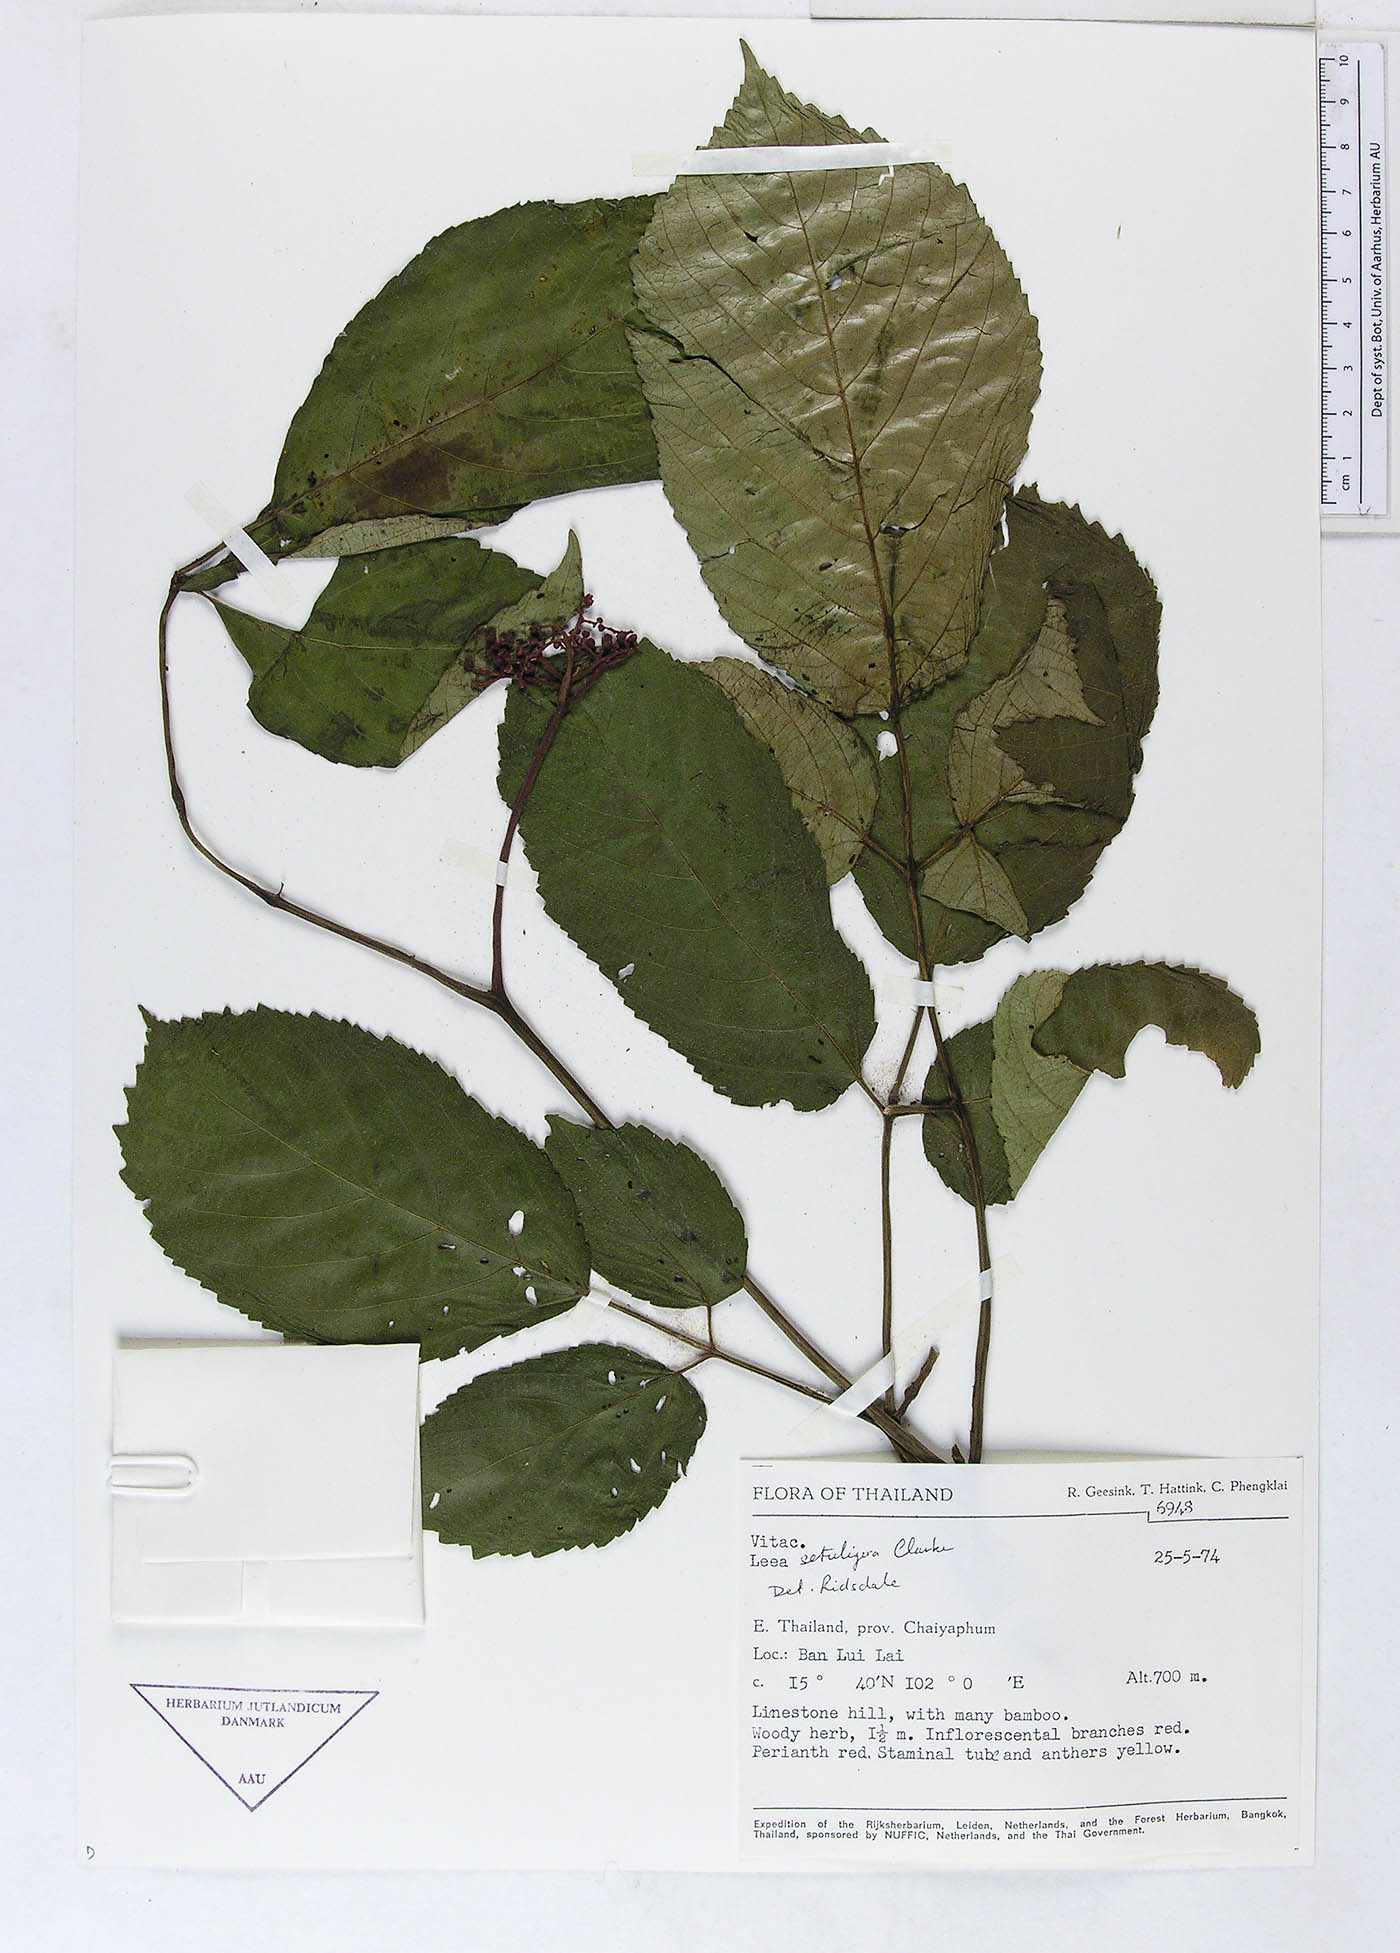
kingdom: Plantae
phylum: Tracheophyta
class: Magnoliopsida
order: Vitales
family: Vitaceae
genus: Leea
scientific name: Leea setuligera
